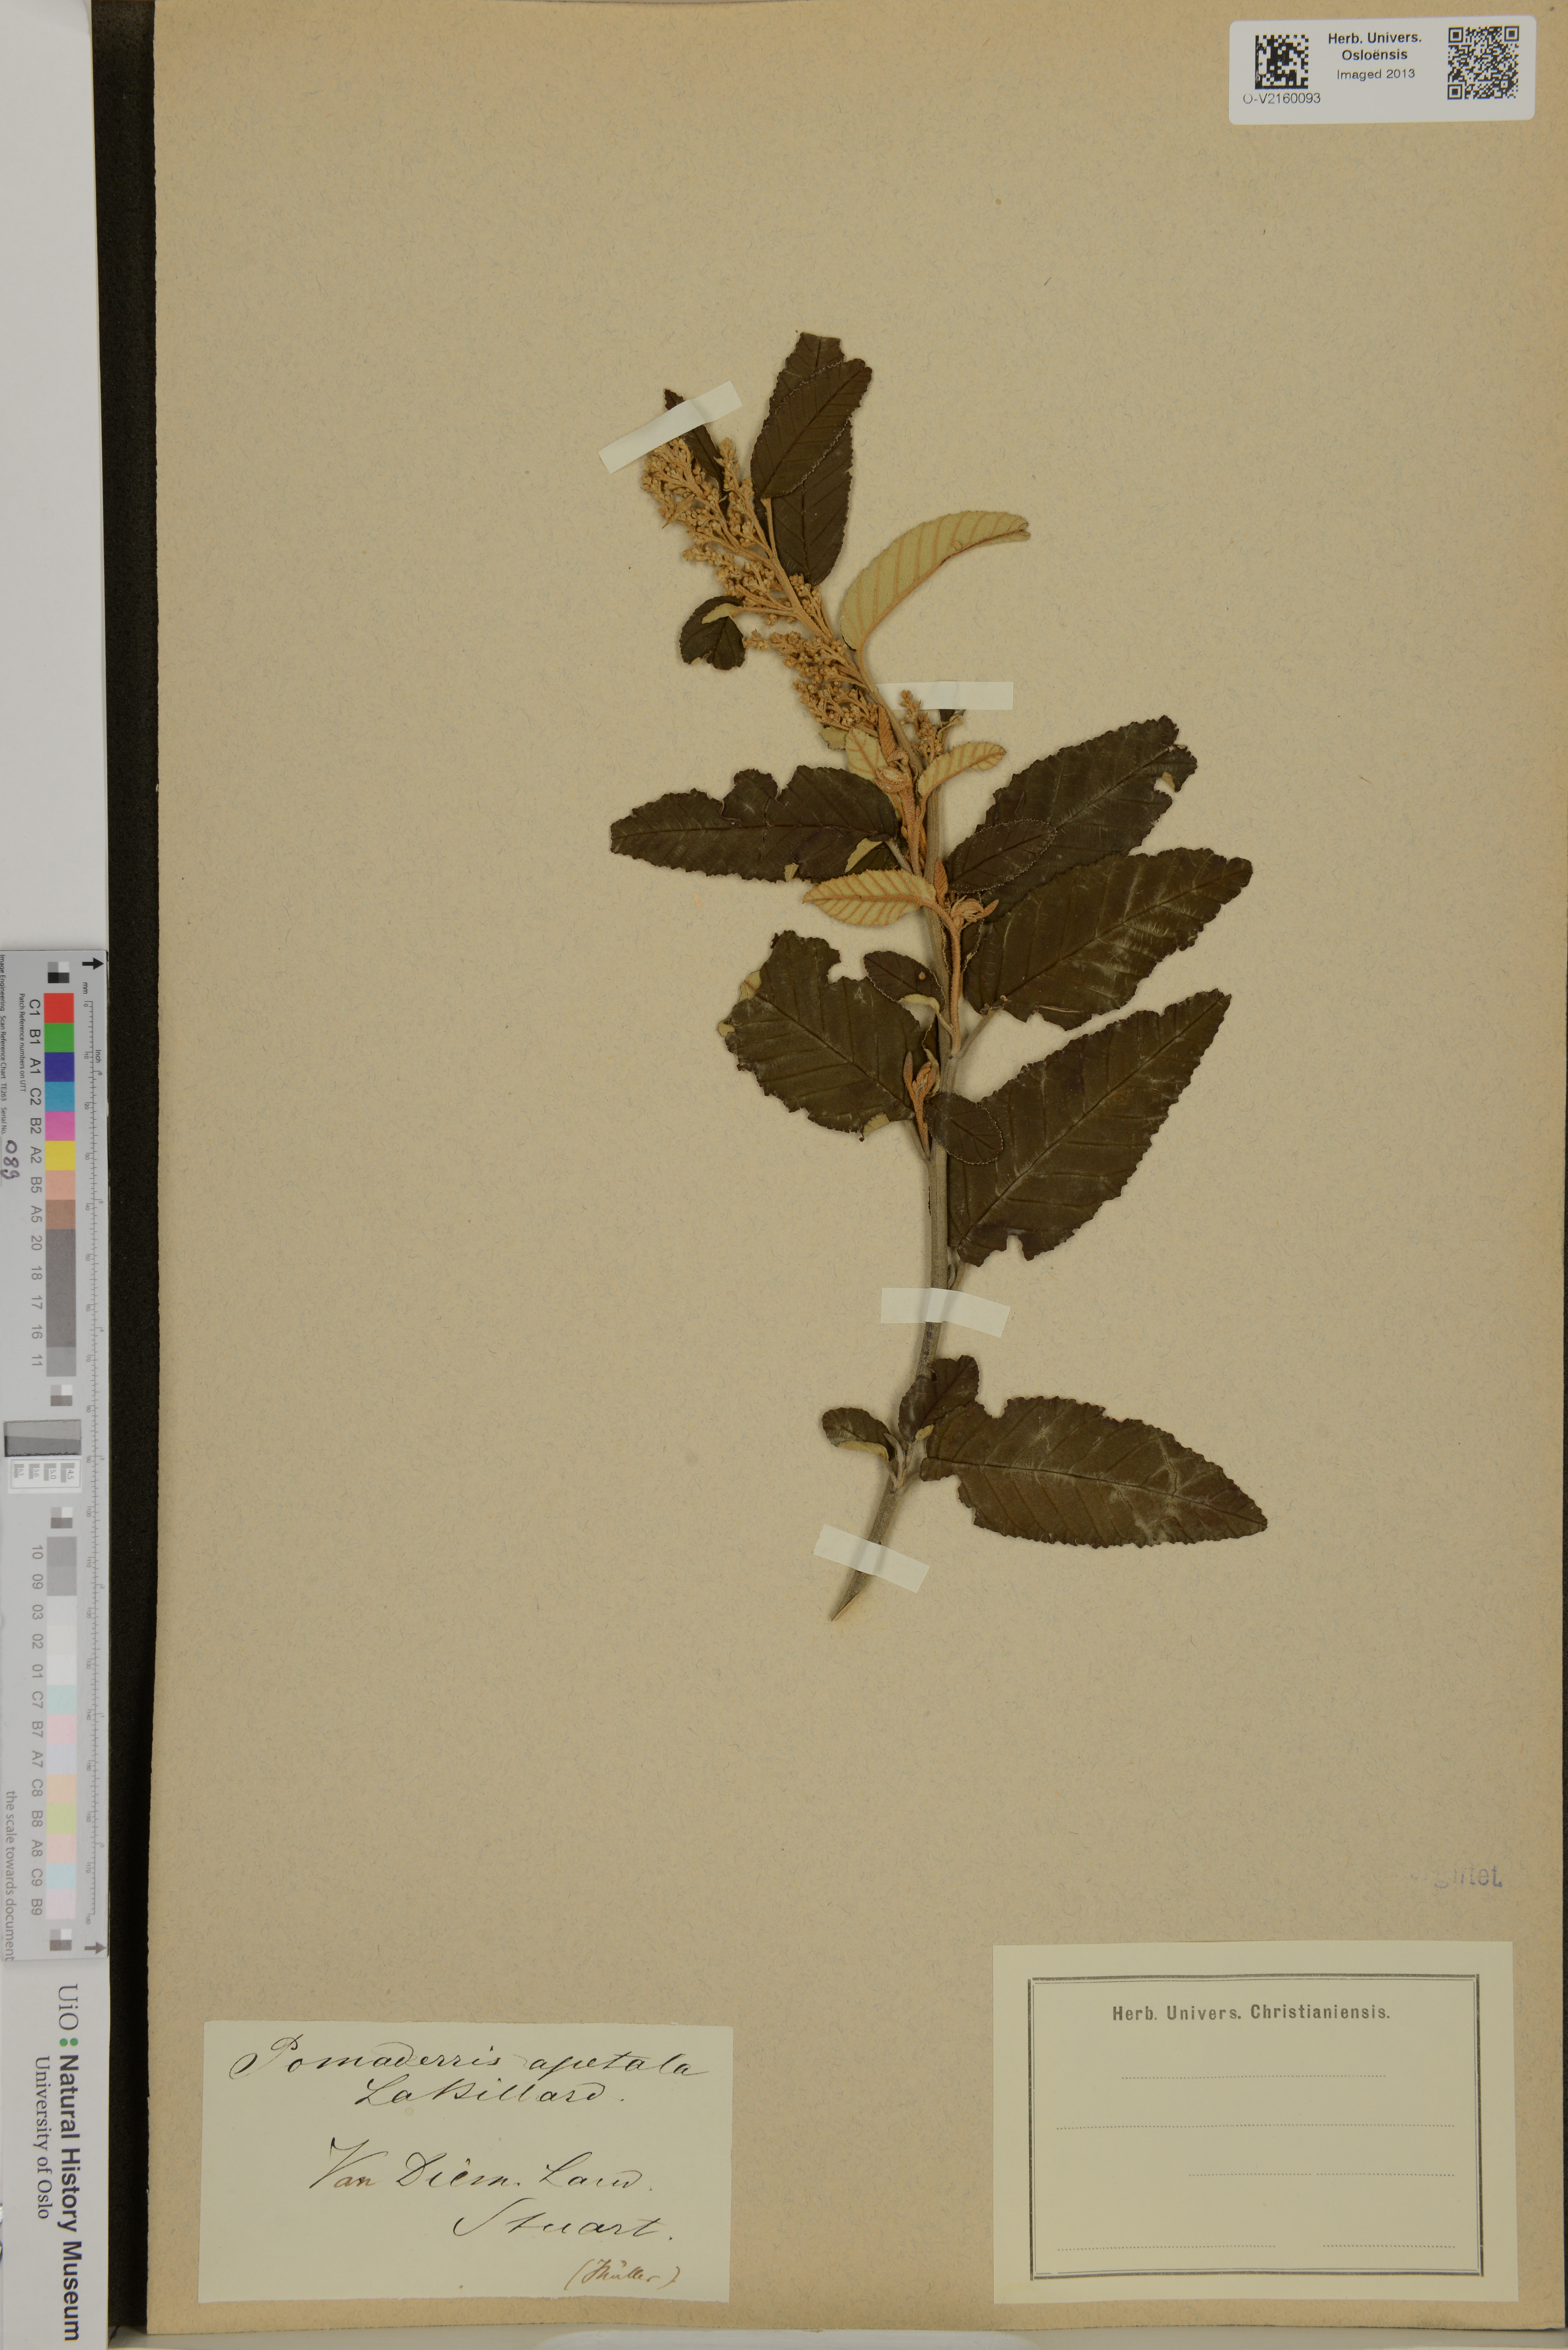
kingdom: Plantae
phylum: Tracheophyta
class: Magnoliopsida
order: Rosales
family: Rhamnaceae
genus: Pomaderris
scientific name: Pomaderris apetala
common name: Hazel pomaderris
